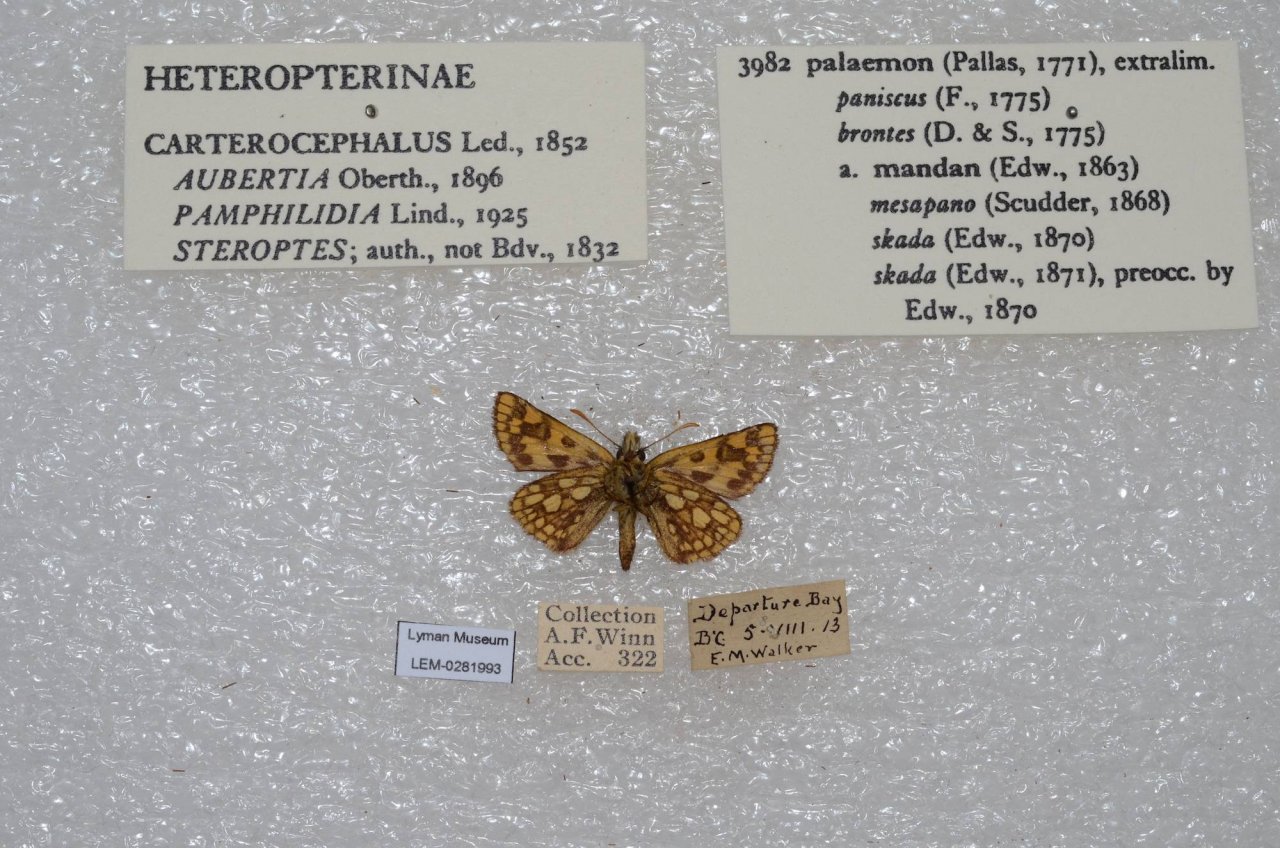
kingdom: Animalia
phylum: Arthropoda
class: Insecta
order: Lepidoptera
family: Hesperiidae
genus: Carterocephalus
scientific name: Carterocephalus palaemon
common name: Chequered Skipper
